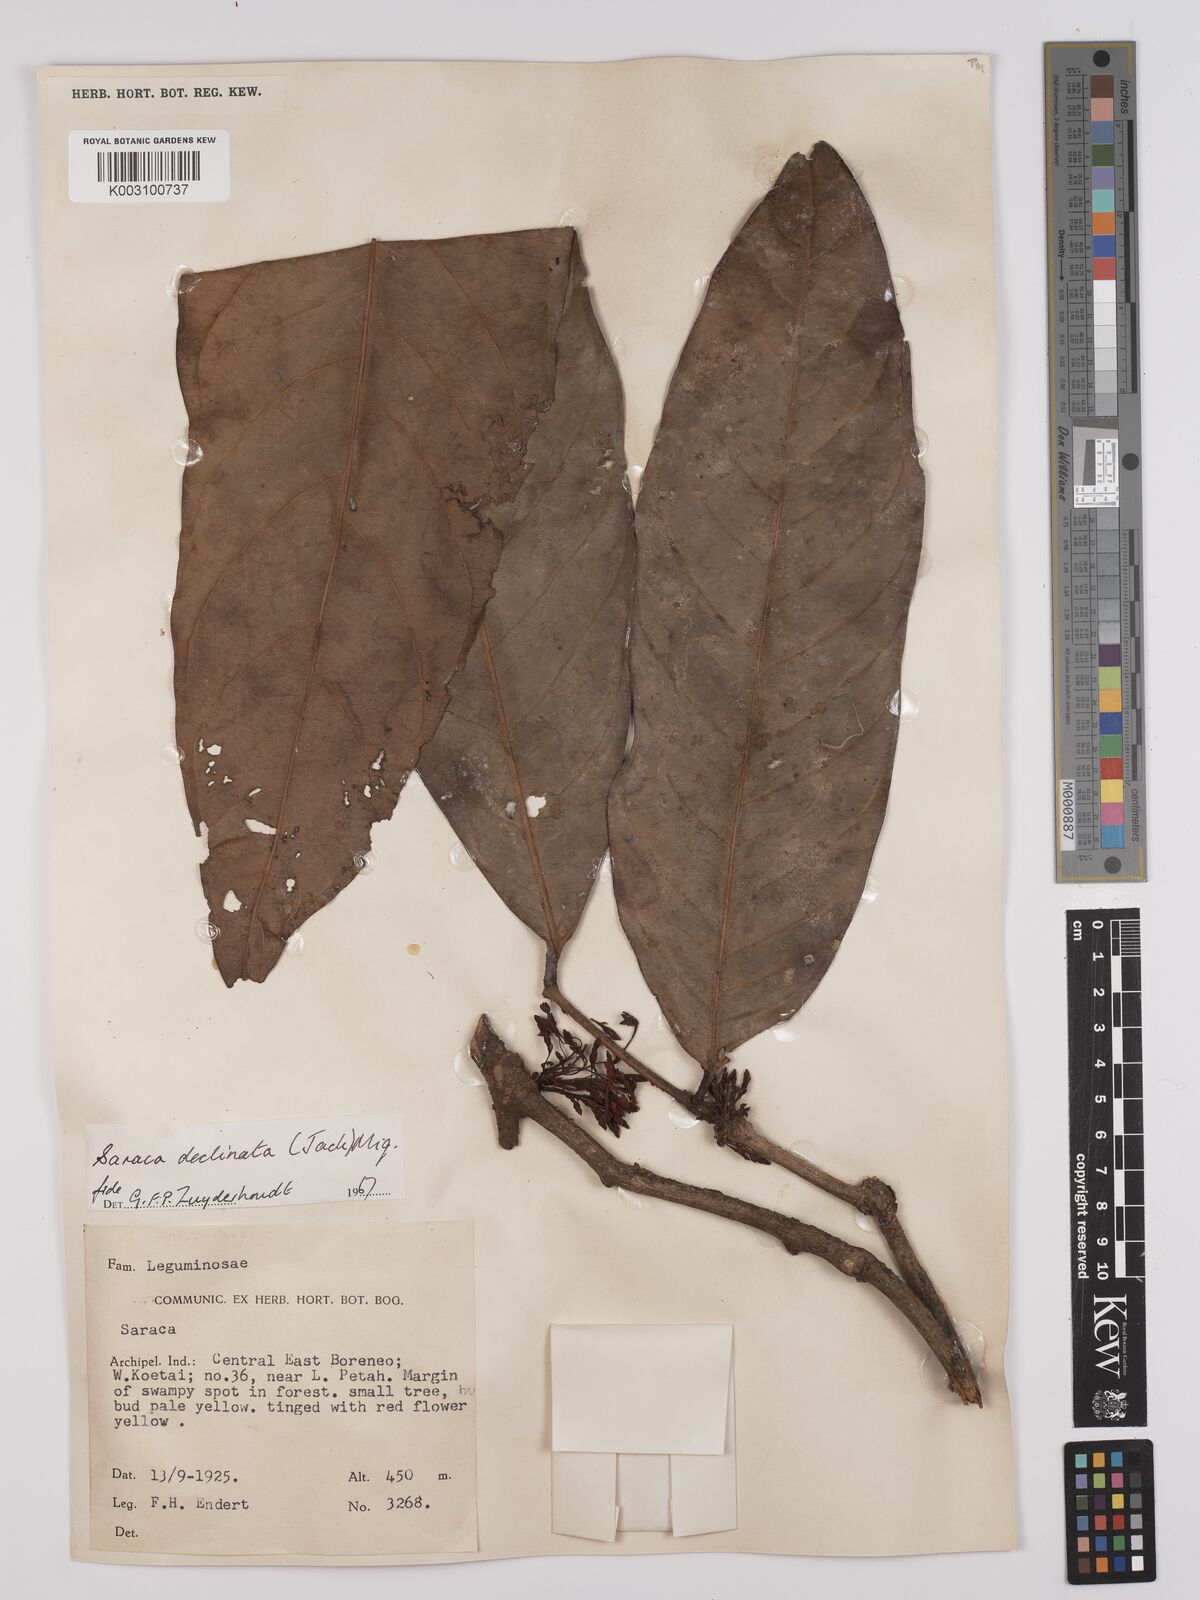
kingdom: Plantae
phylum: Tracheophyta
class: Magnoliopsida
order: Fabales
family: Fabaceae
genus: Saraca
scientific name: Saraca declinata
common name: Red saraca
